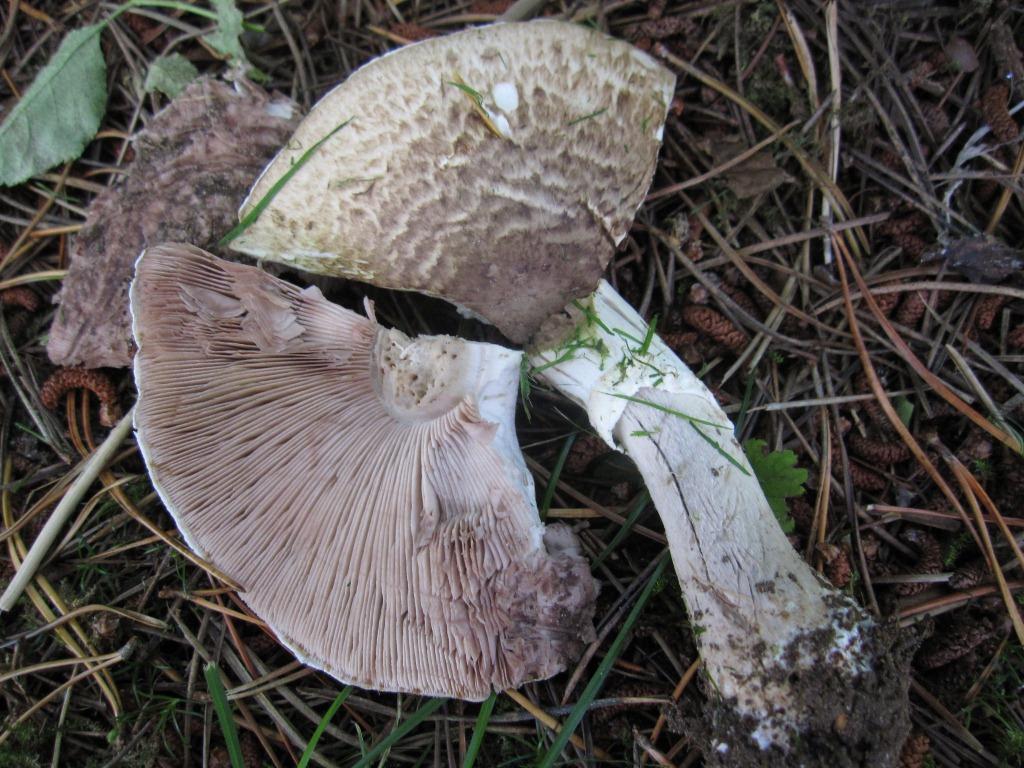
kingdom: Fungi
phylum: Basidiomycota
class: Agaricomycetes
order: Agaricales
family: Agaricaceae
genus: Agaricus
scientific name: Agaricus impudicus
